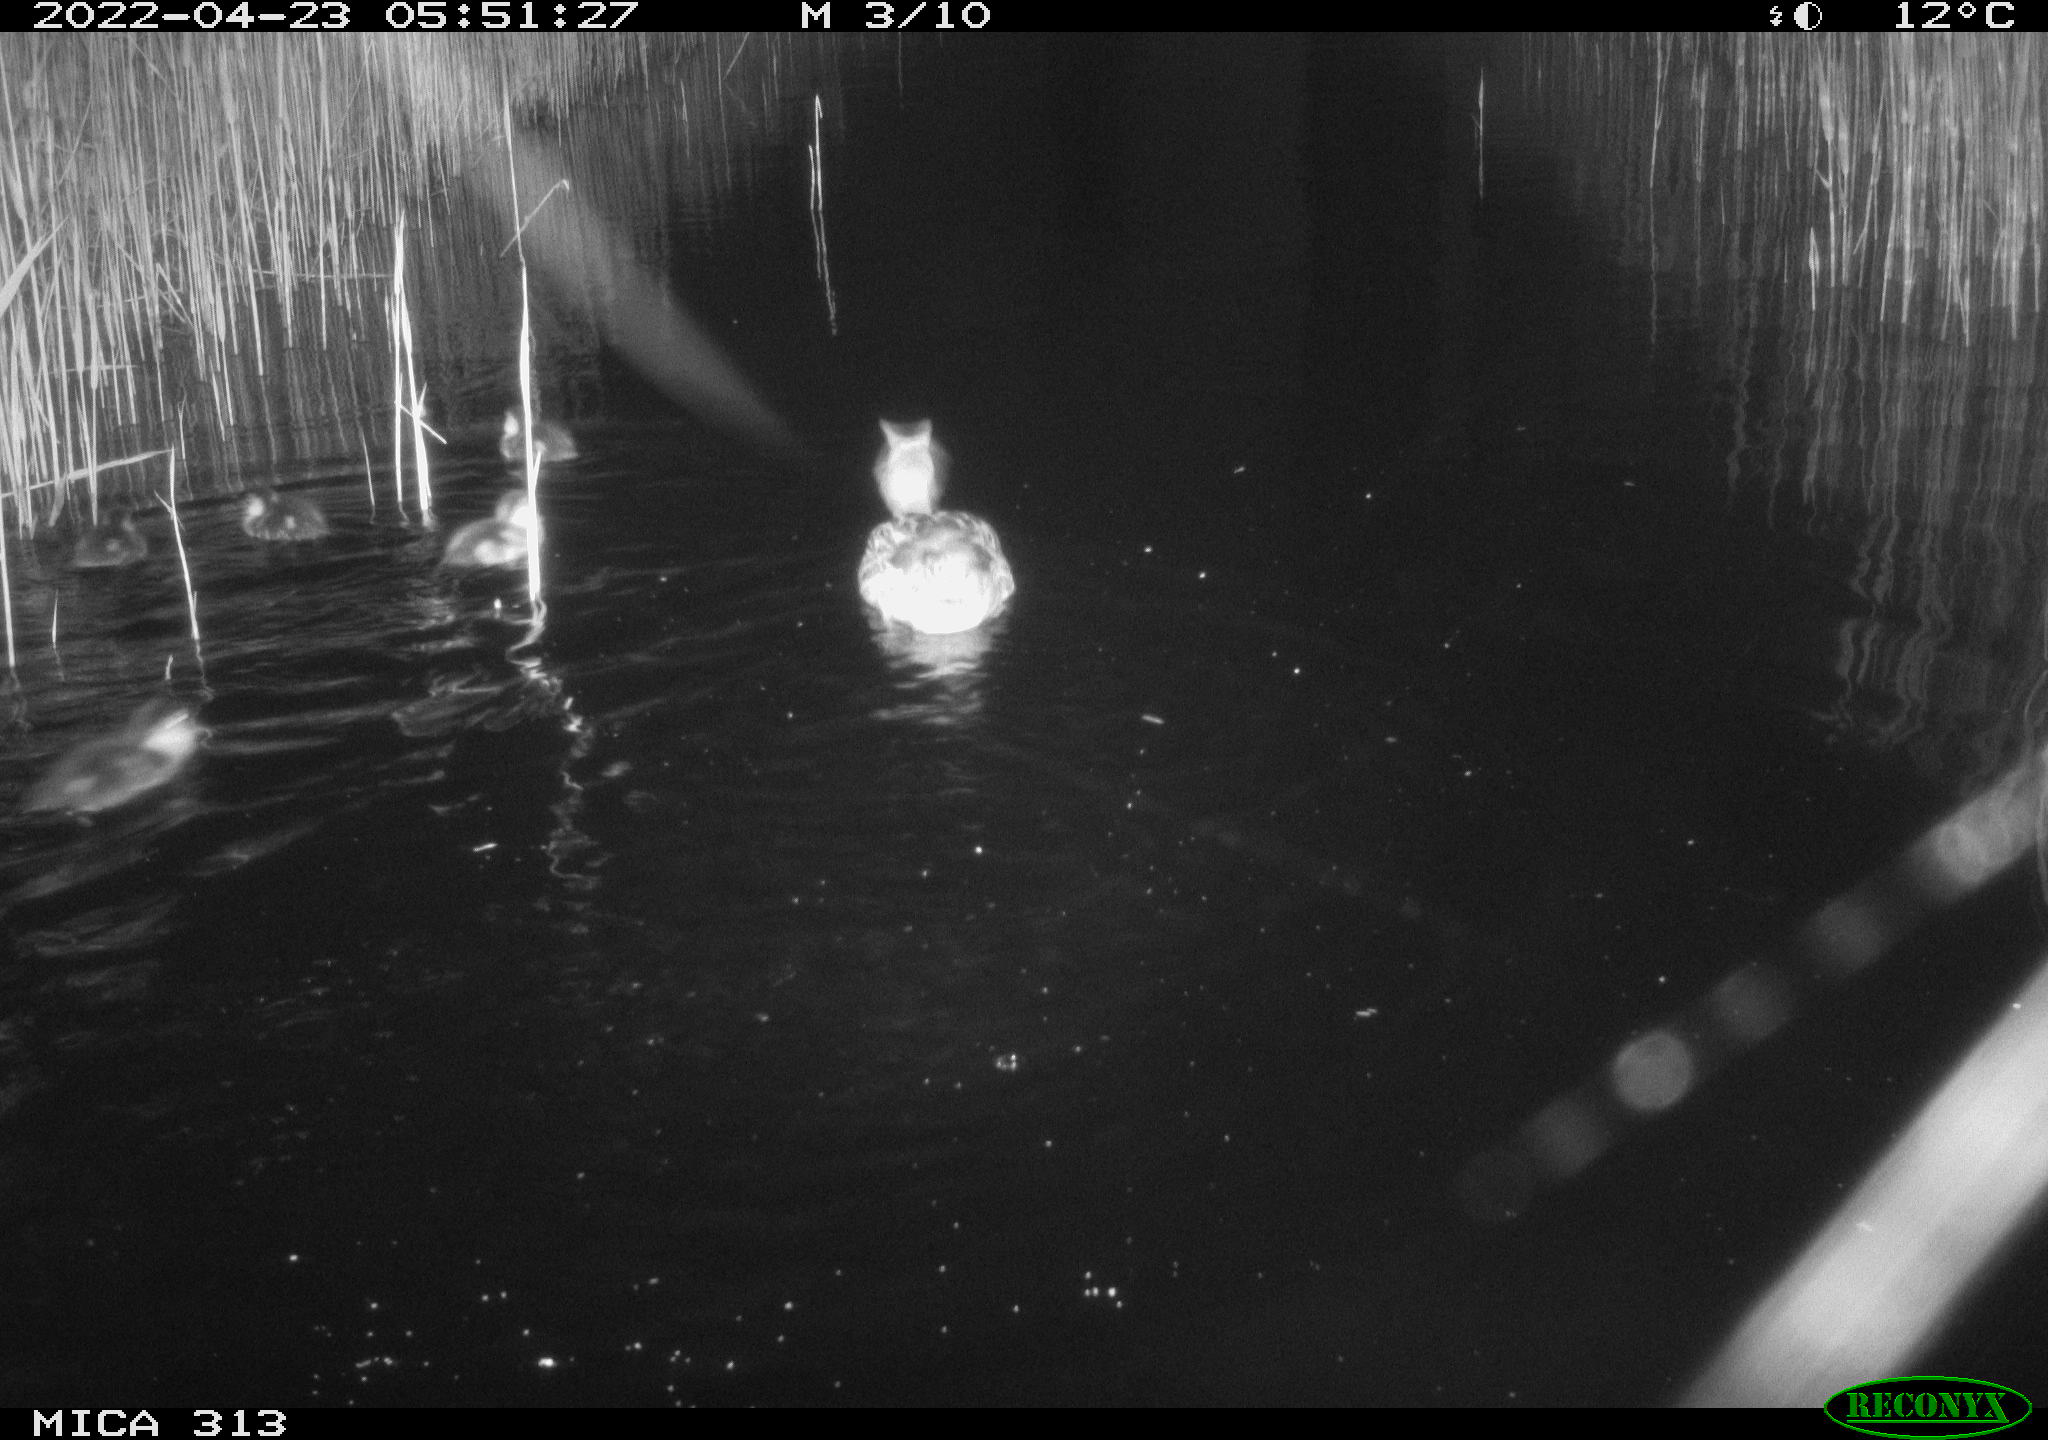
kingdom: Animalia
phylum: Chordata
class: Aves
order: Anseriformes
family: Anatidae
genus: Anas
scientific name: Anas platyrhynchos
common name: Mallard
